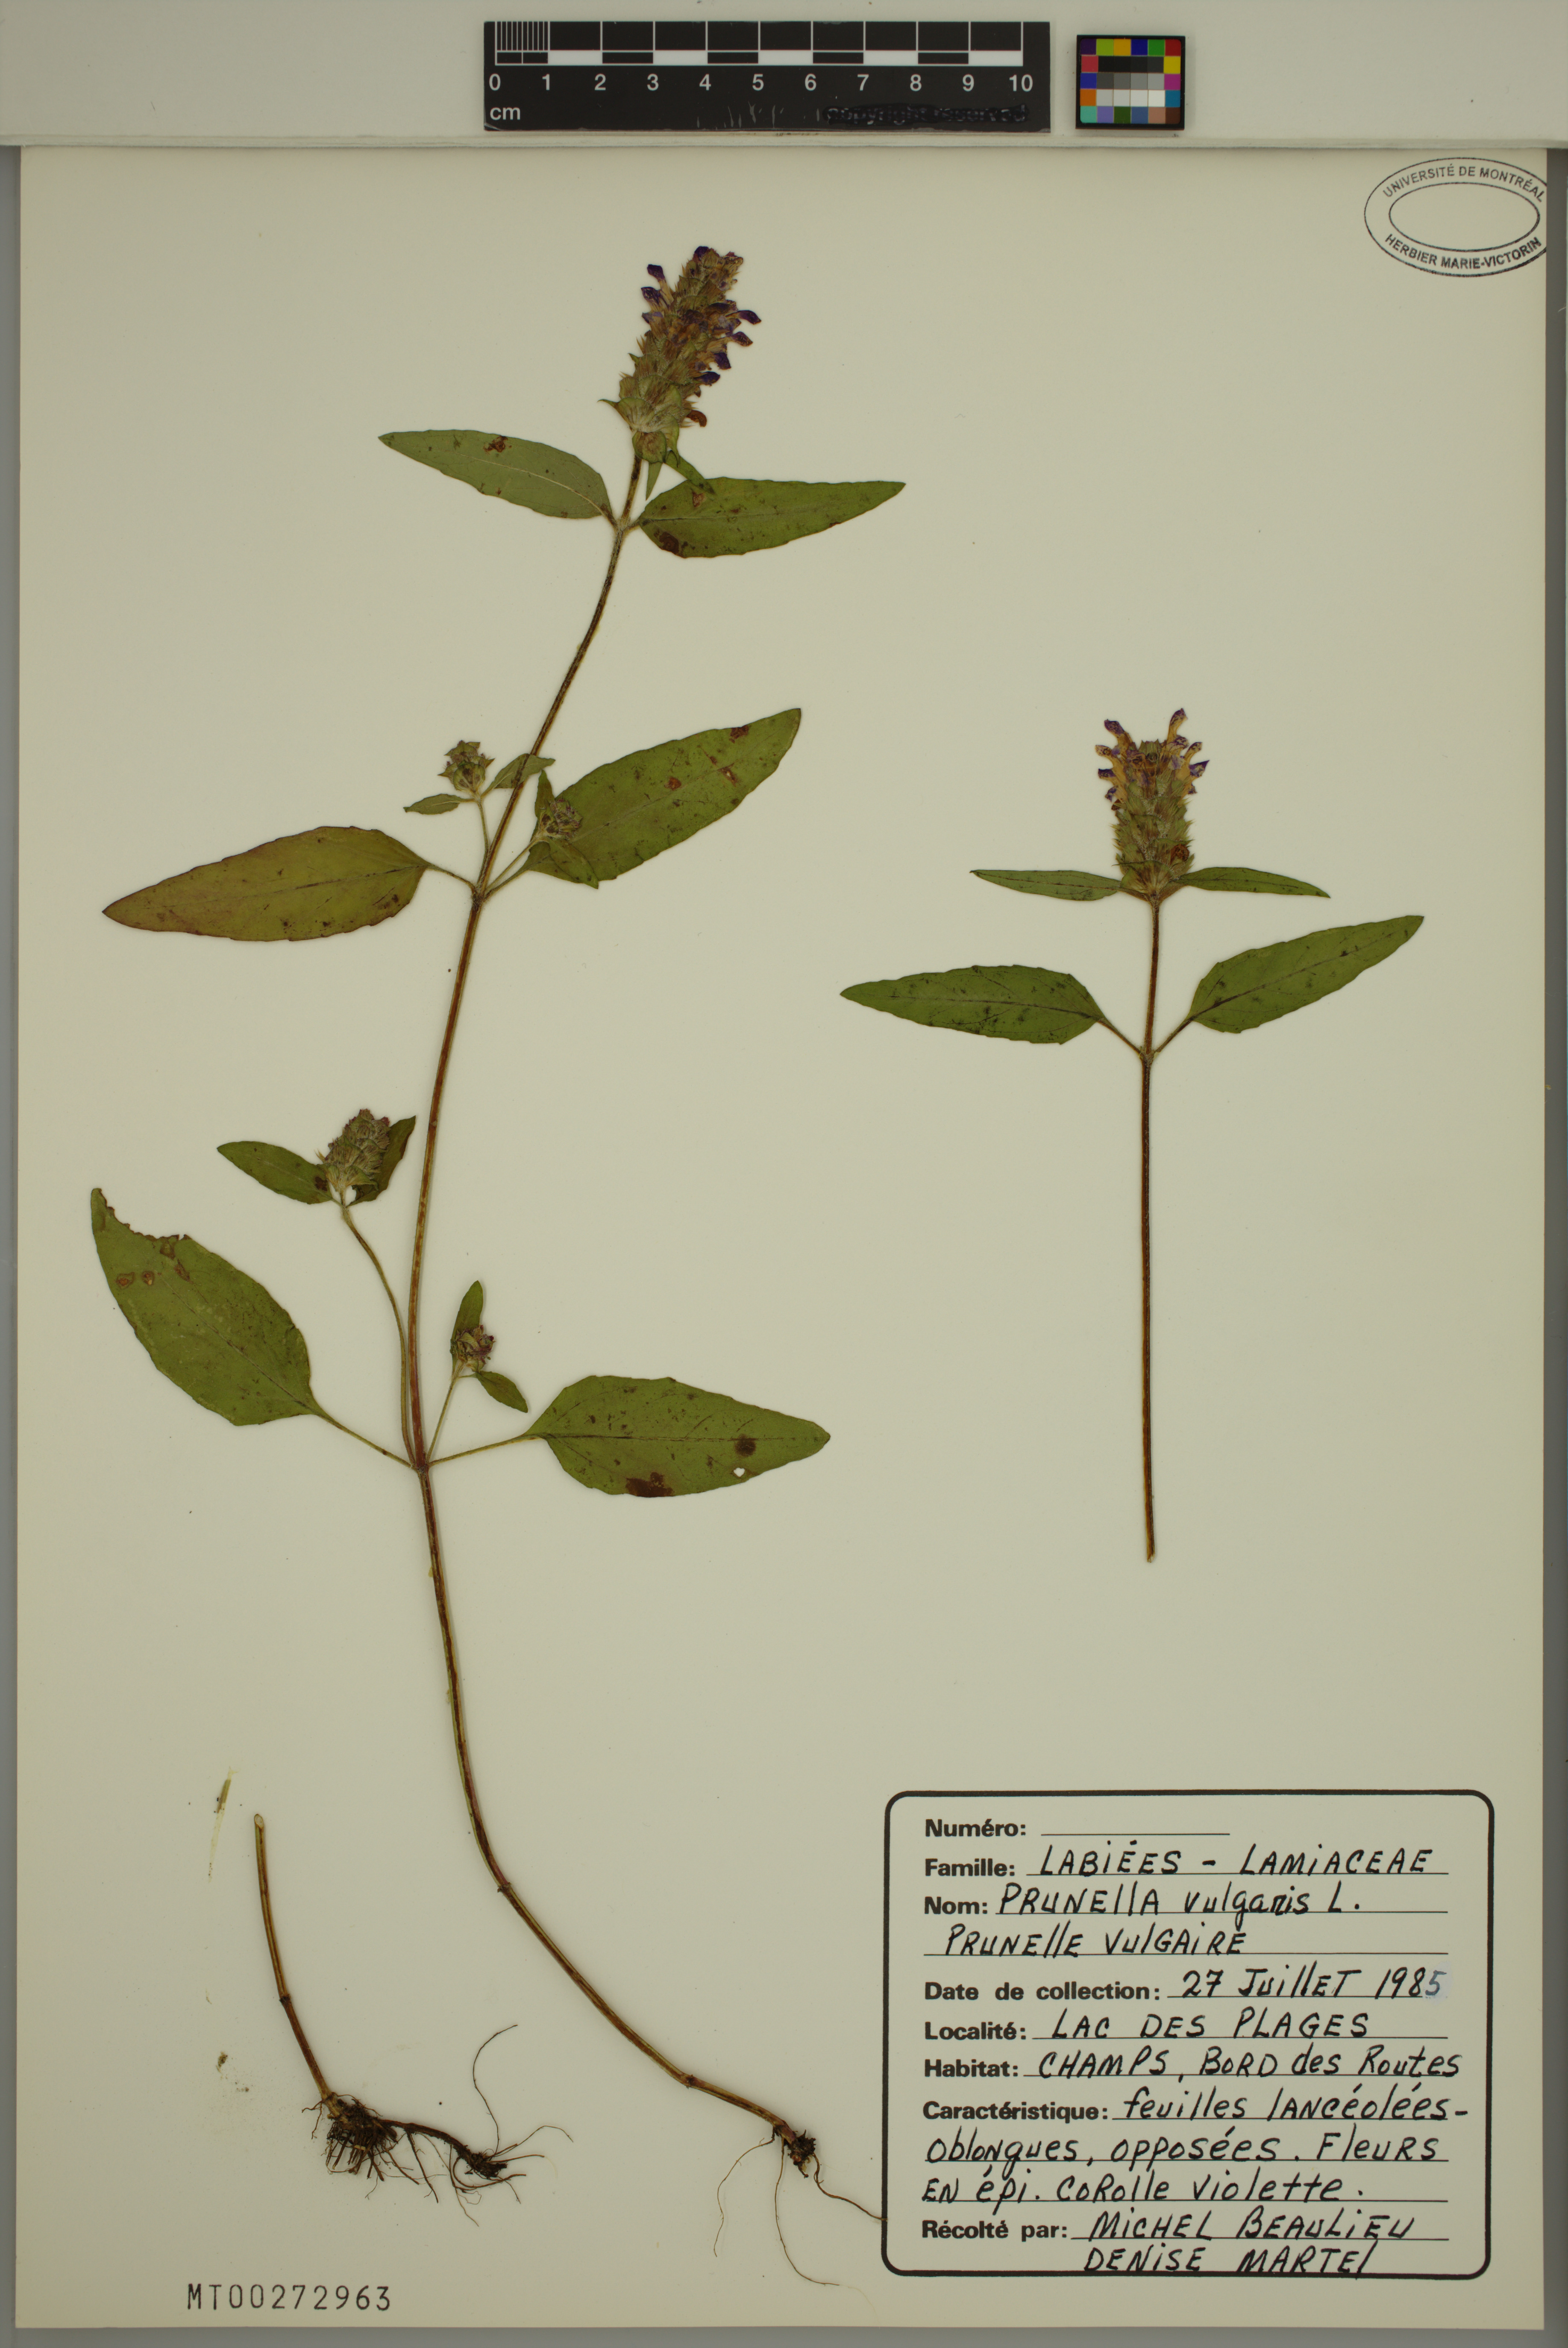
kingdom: Plantae
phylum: Tracheophyta
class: Magnoliopsida
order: Lamiales
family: Lamiaceae
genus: Prunella
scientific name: Prunella vulgaris
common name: Heal-all
